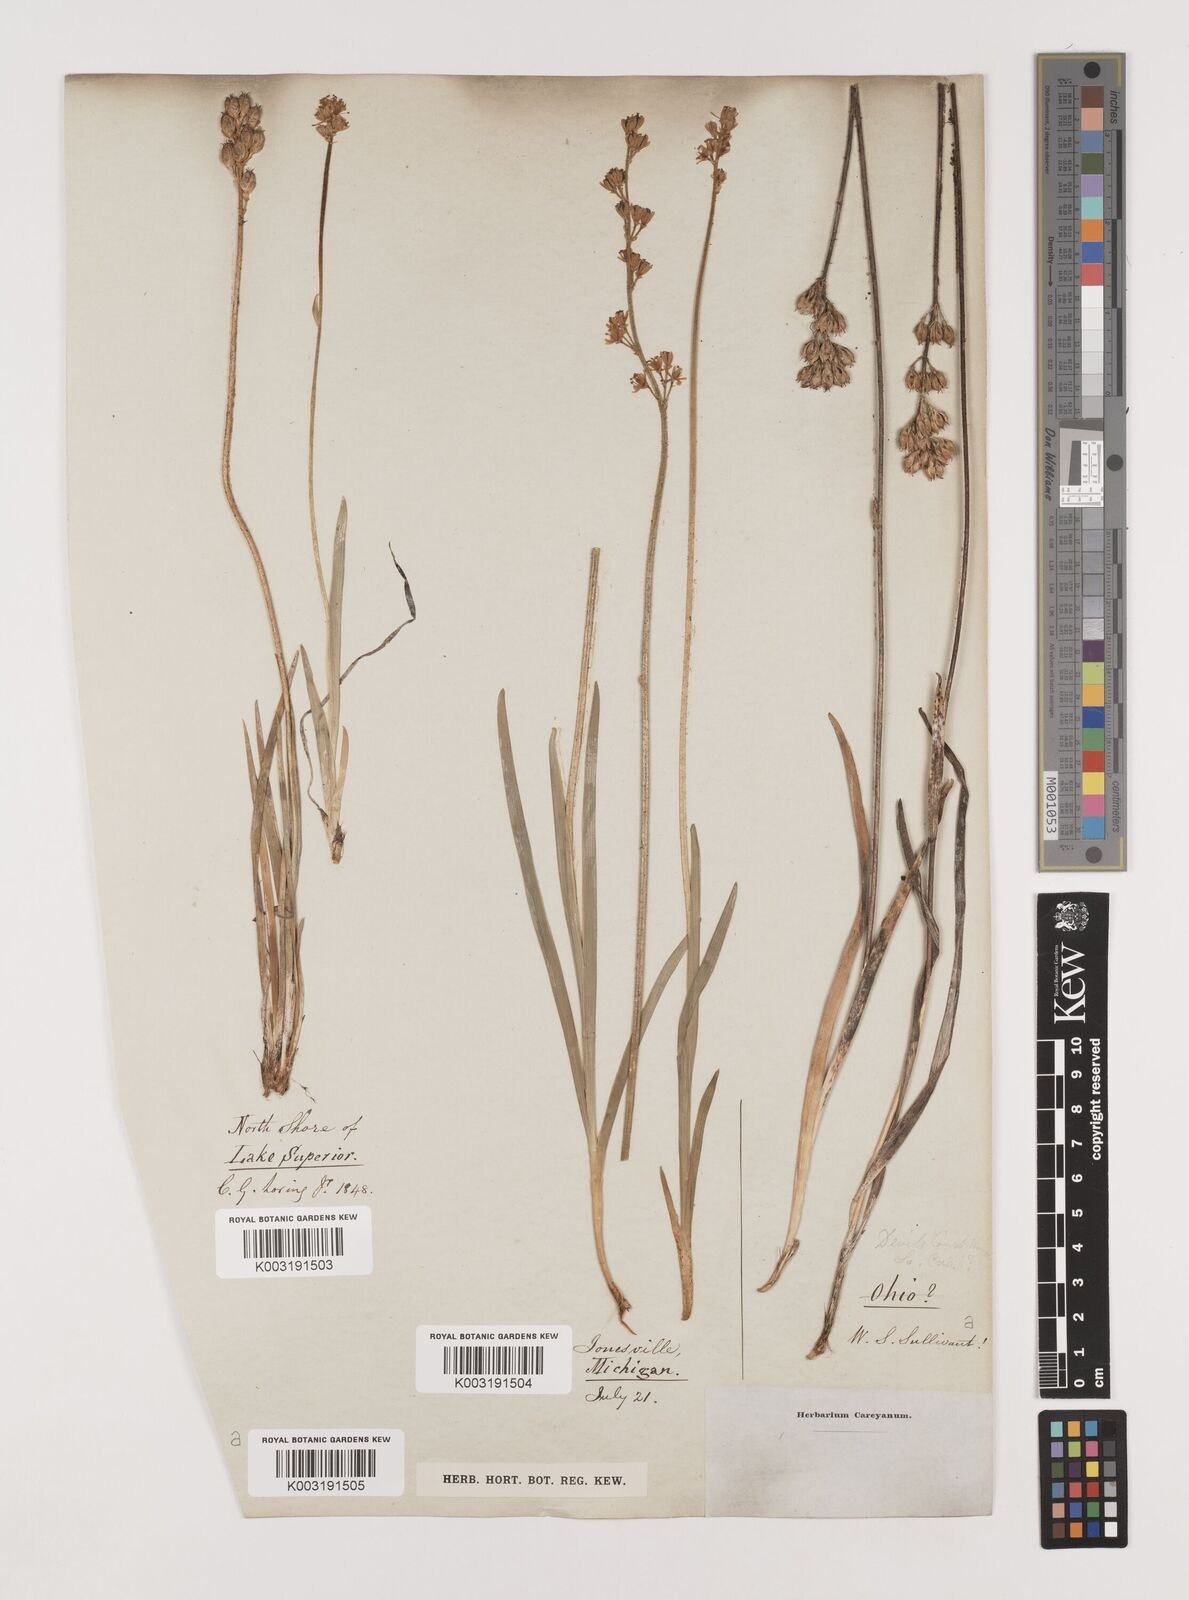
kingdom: Plantae
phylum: Tracheophyta
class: Liliopsida
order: Alismatales
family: Tofieldiaceae
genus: Tofieldia
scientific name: Tofieldia
